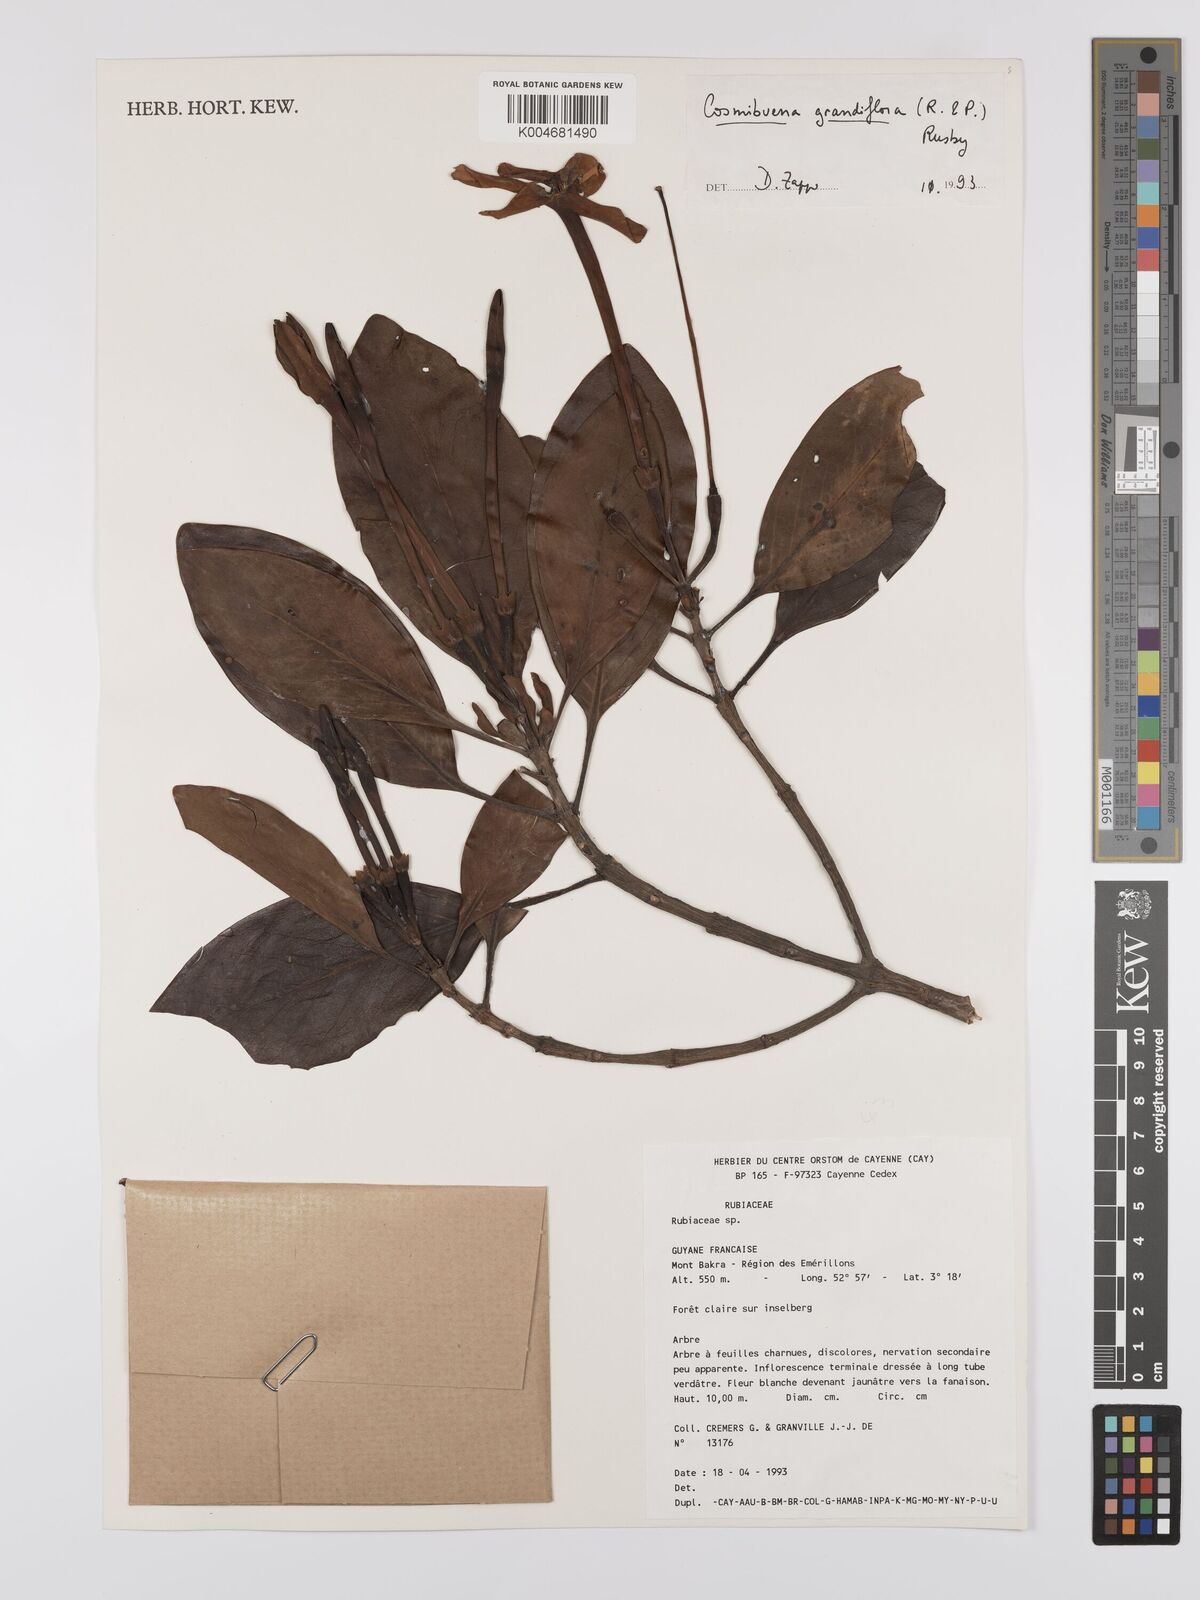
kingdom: Plantae
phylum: Tracheophyta
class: Magnoliopsida
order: Gentianales
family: Rubiaceae
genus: Cosmibuena
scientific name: Cosmibuena grandiflora
